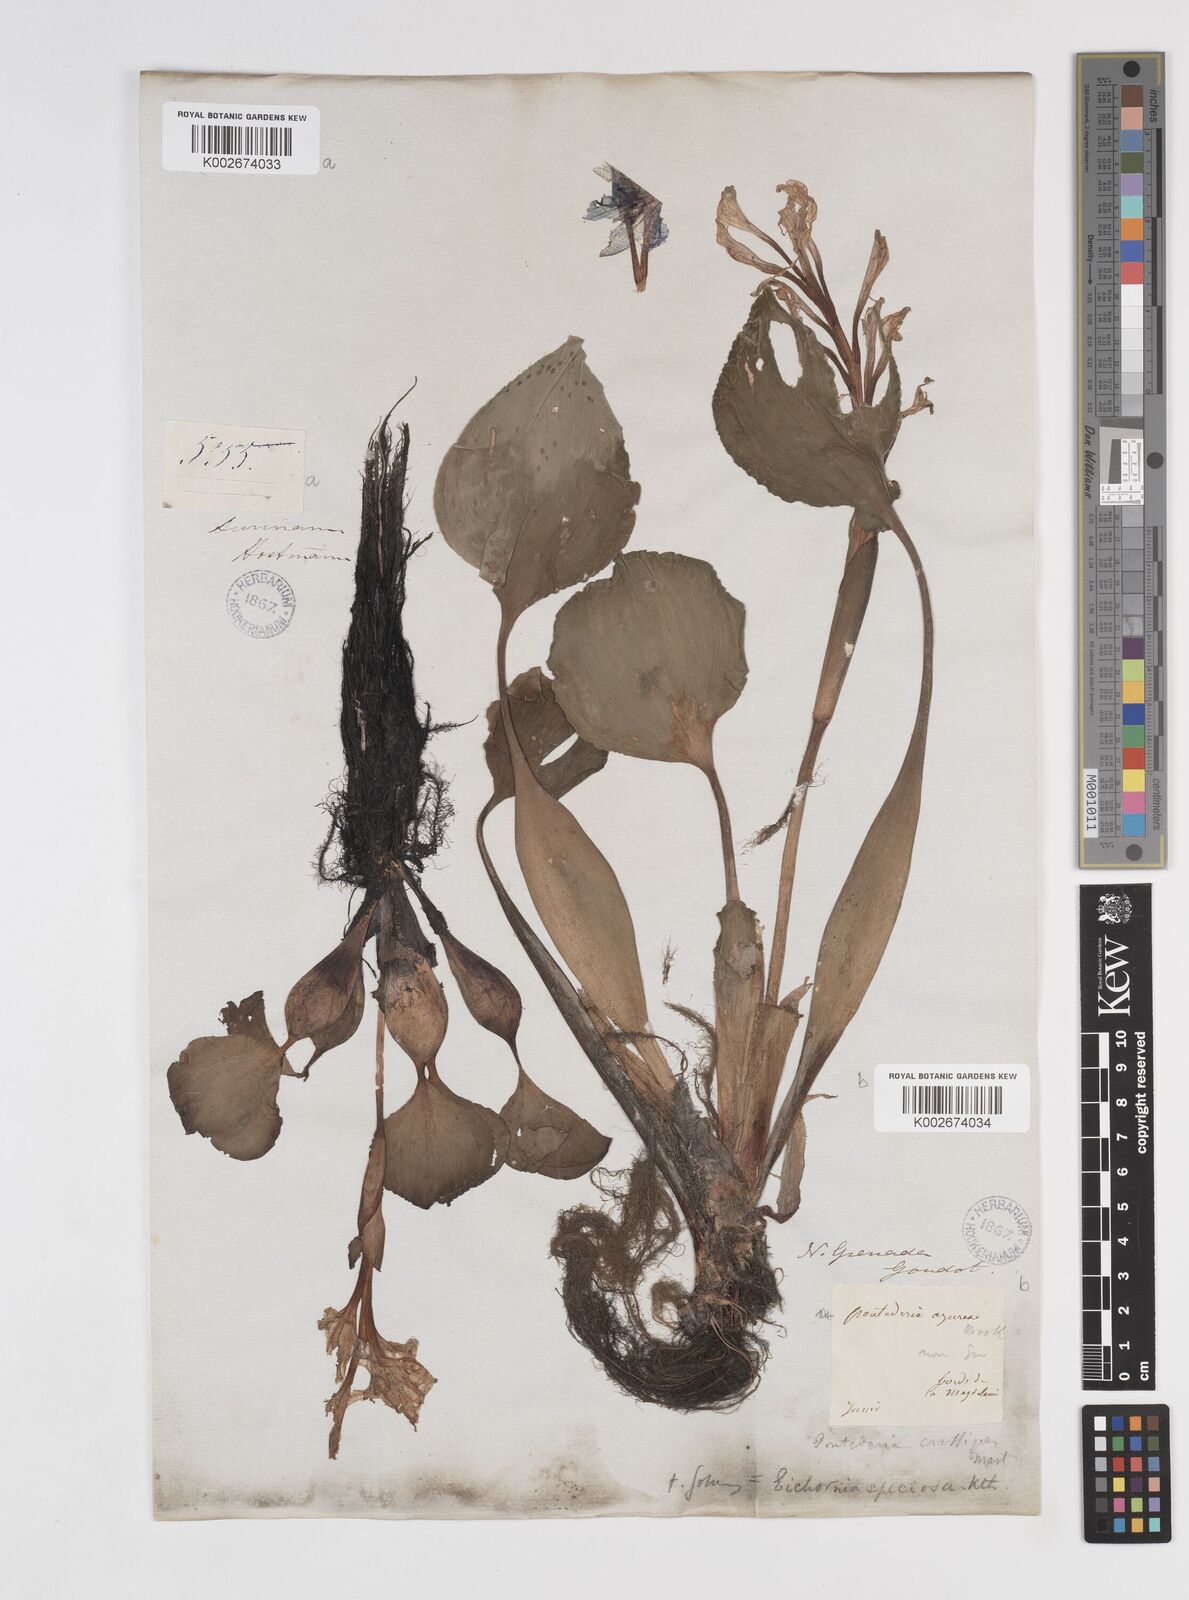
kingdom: Plantae
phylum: Tracheophyta
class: Liliopsida
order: Commelinales
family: Pontederiaceae
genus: Pontederia
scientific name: Pontederia crassipes
